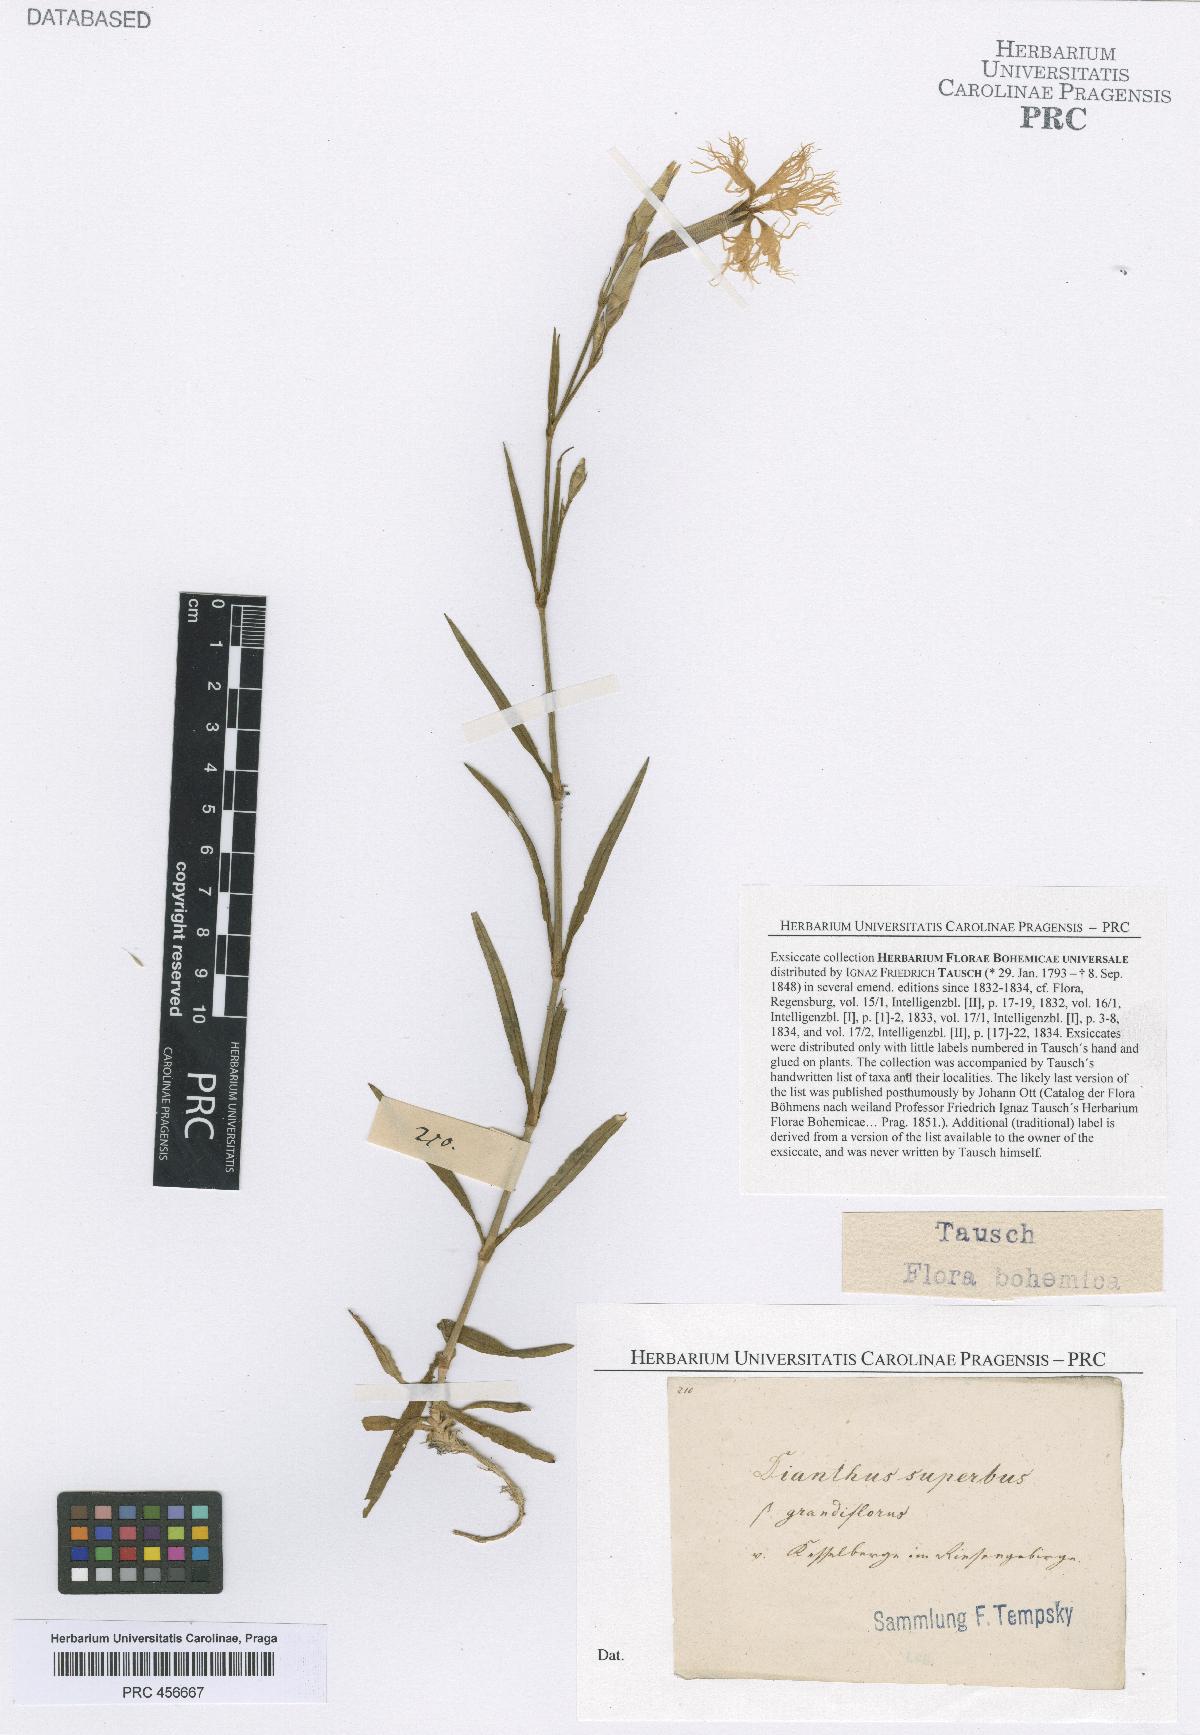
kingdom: Plantae
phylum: Tracheophyta
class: Magnoliopsida
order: Caryophyllales
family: Caryophyllaceae
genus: Dianthus
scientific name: Dianthus superbus
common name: Fringed pink
